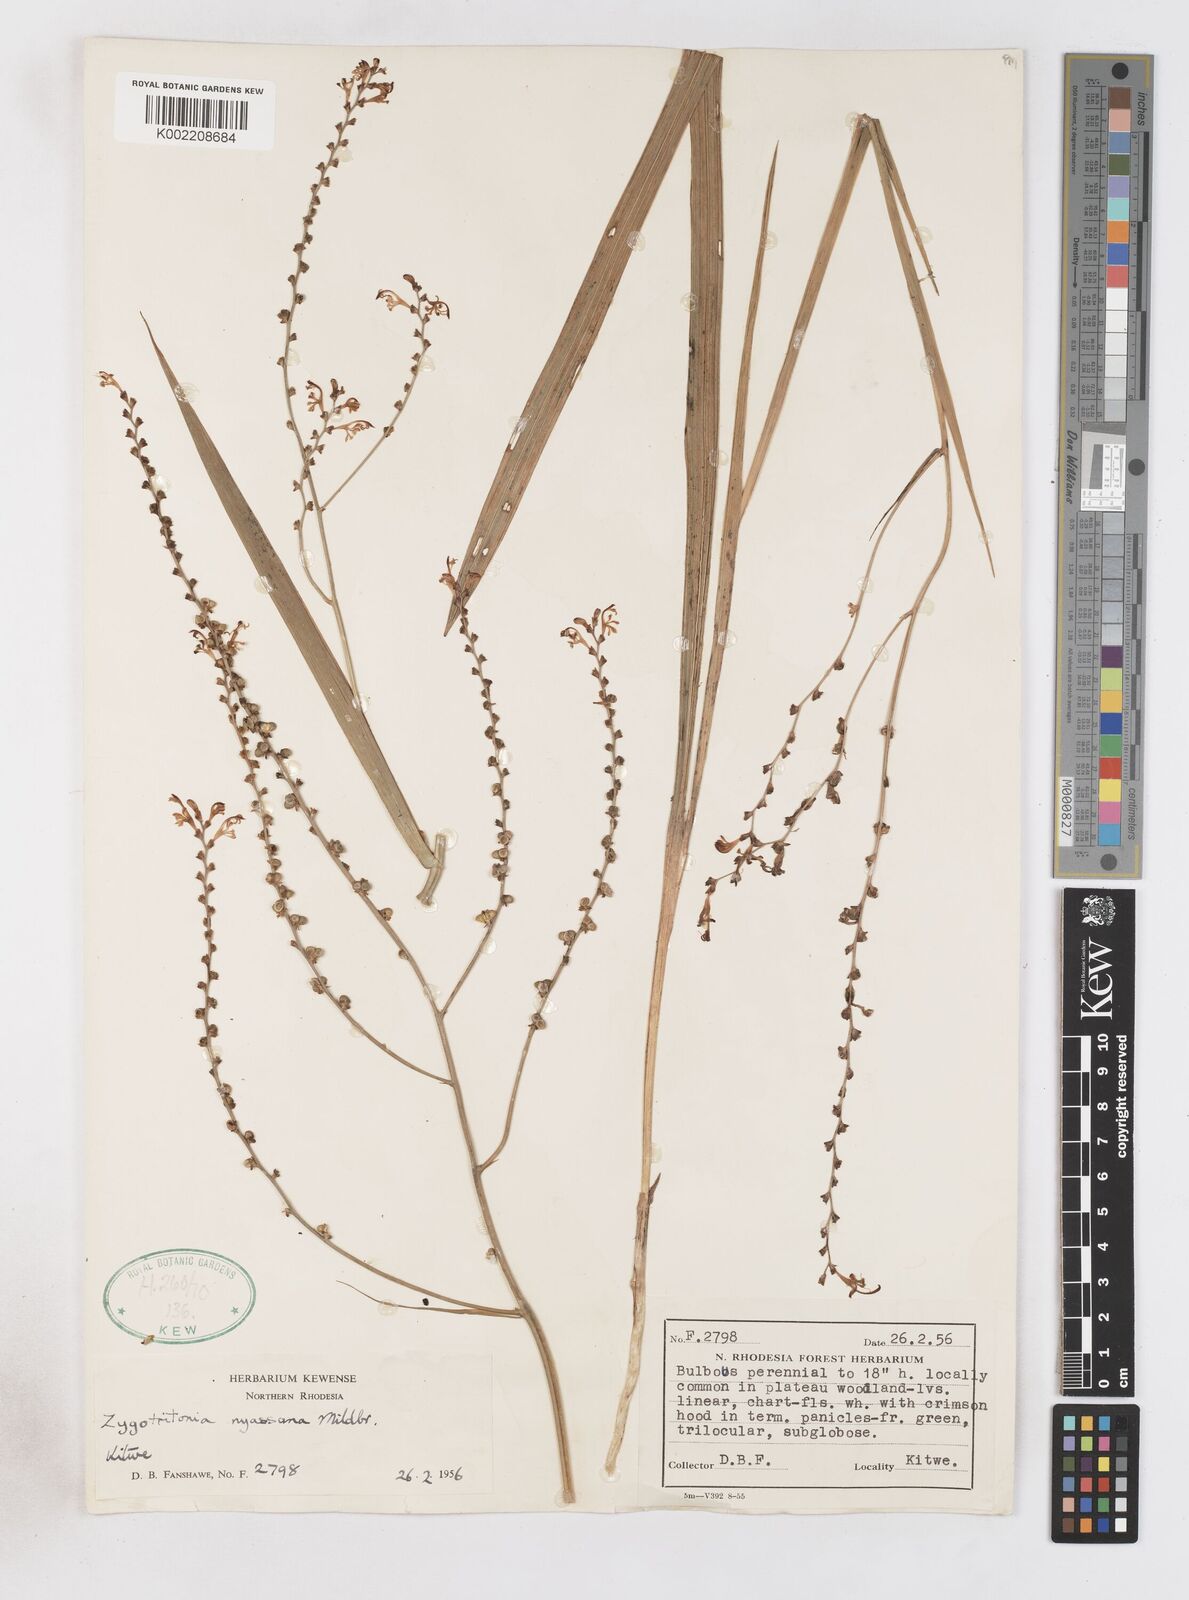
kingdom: Plantae
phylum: Tracheophyta
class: Liliopsida
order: Asparagales
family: Iridaceae
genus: Zygotritonia
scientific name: Zygotritonia nyassana
